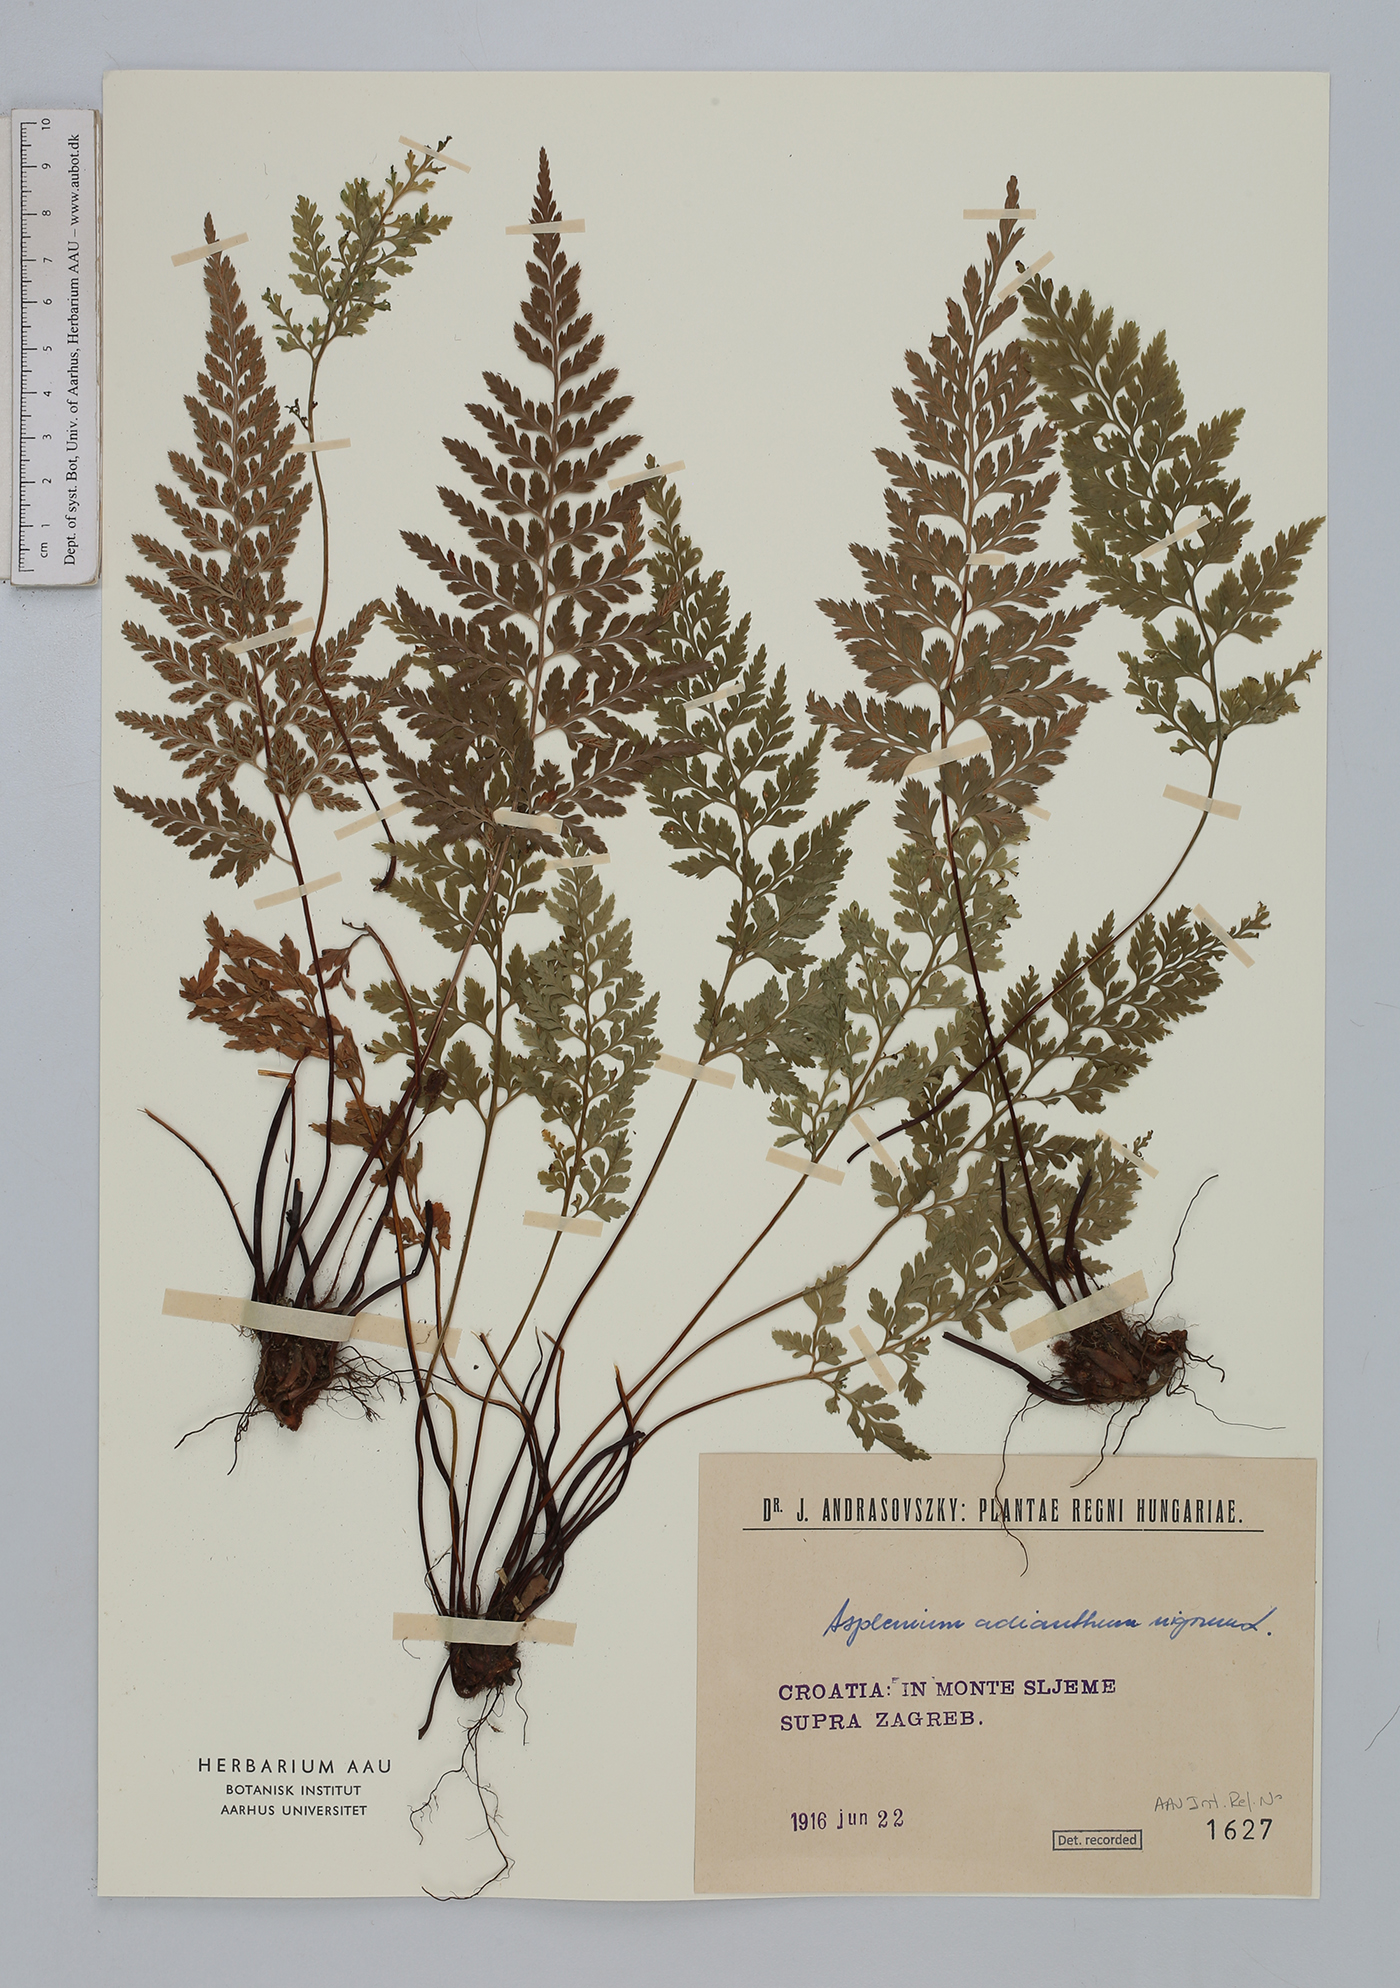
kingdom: Plantae
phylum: Tracheophyta
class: Polypodiopsida
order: Polypodiales
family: Aspleniaceae
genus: Asplenium
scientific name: Asplenium adiantum-nigrum
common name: Black spleenwort
